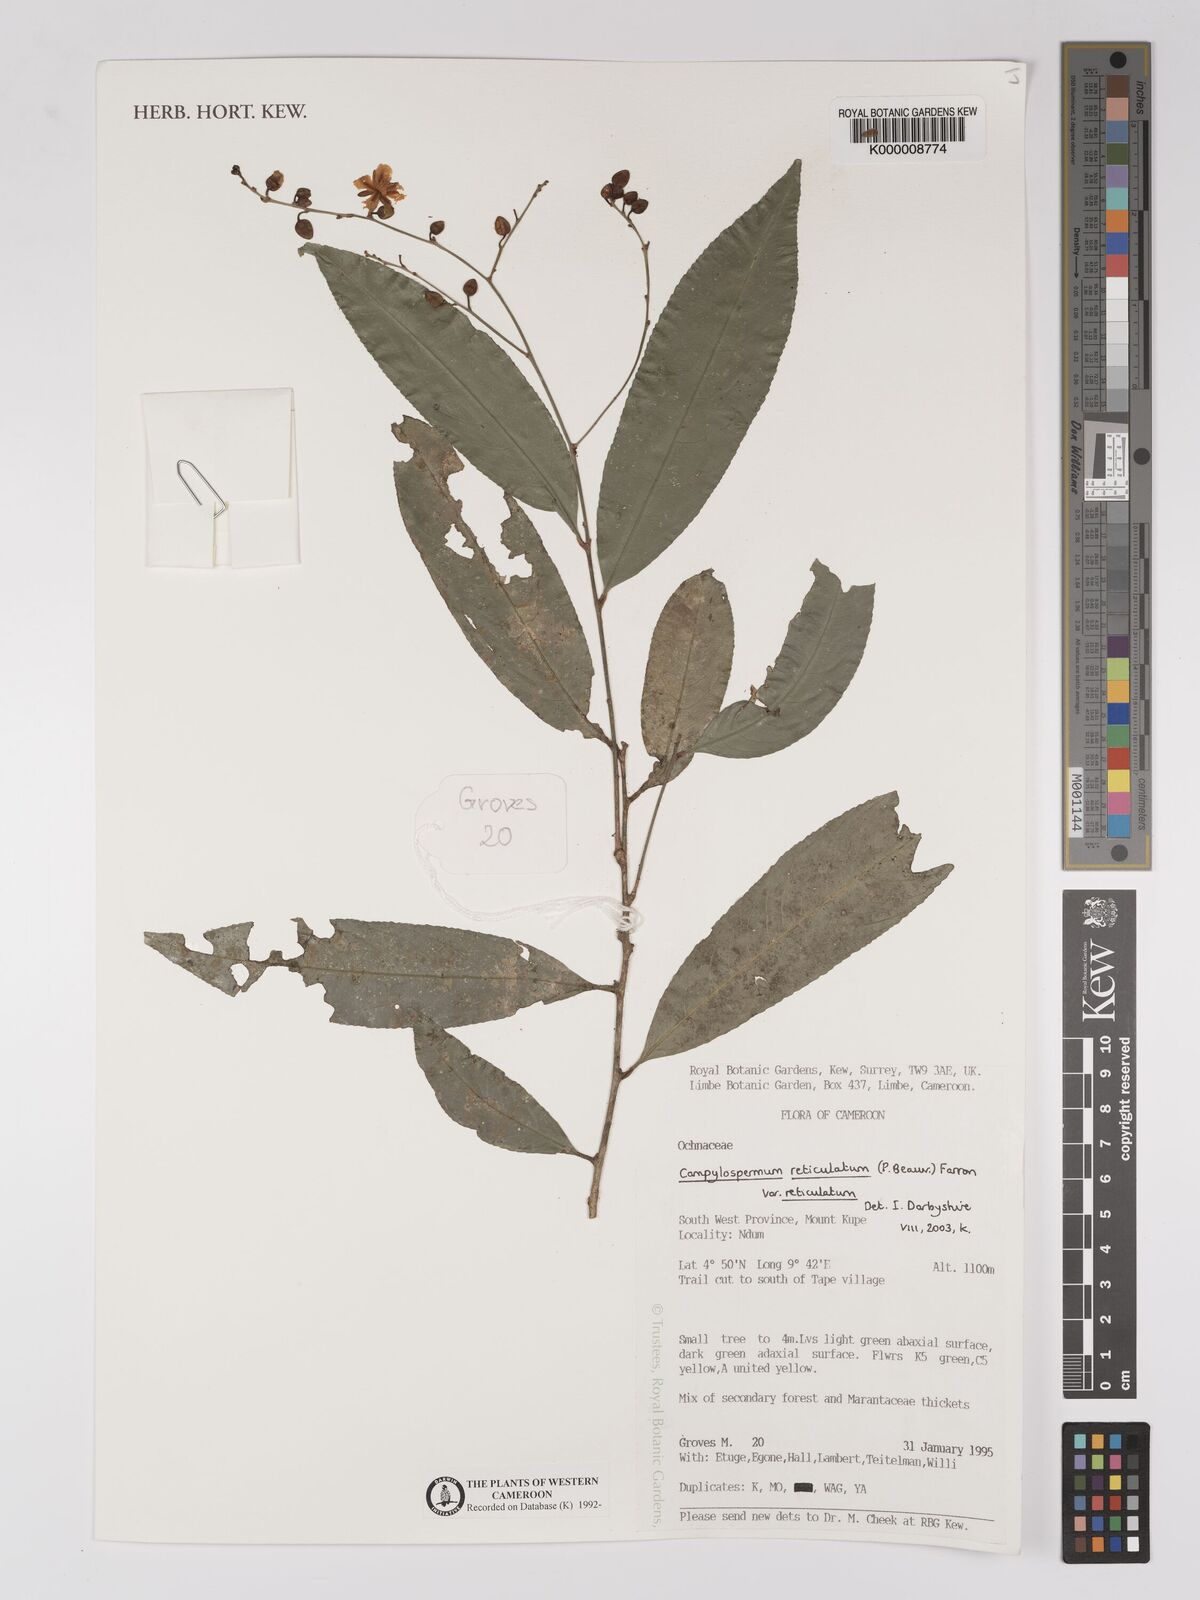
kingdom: Plantae
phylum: Tracheophyta
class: Magnoliopsida
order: Malpighiales
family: Ochnaceae
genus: Campylospermum
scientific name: Campylospermum reticulatum
